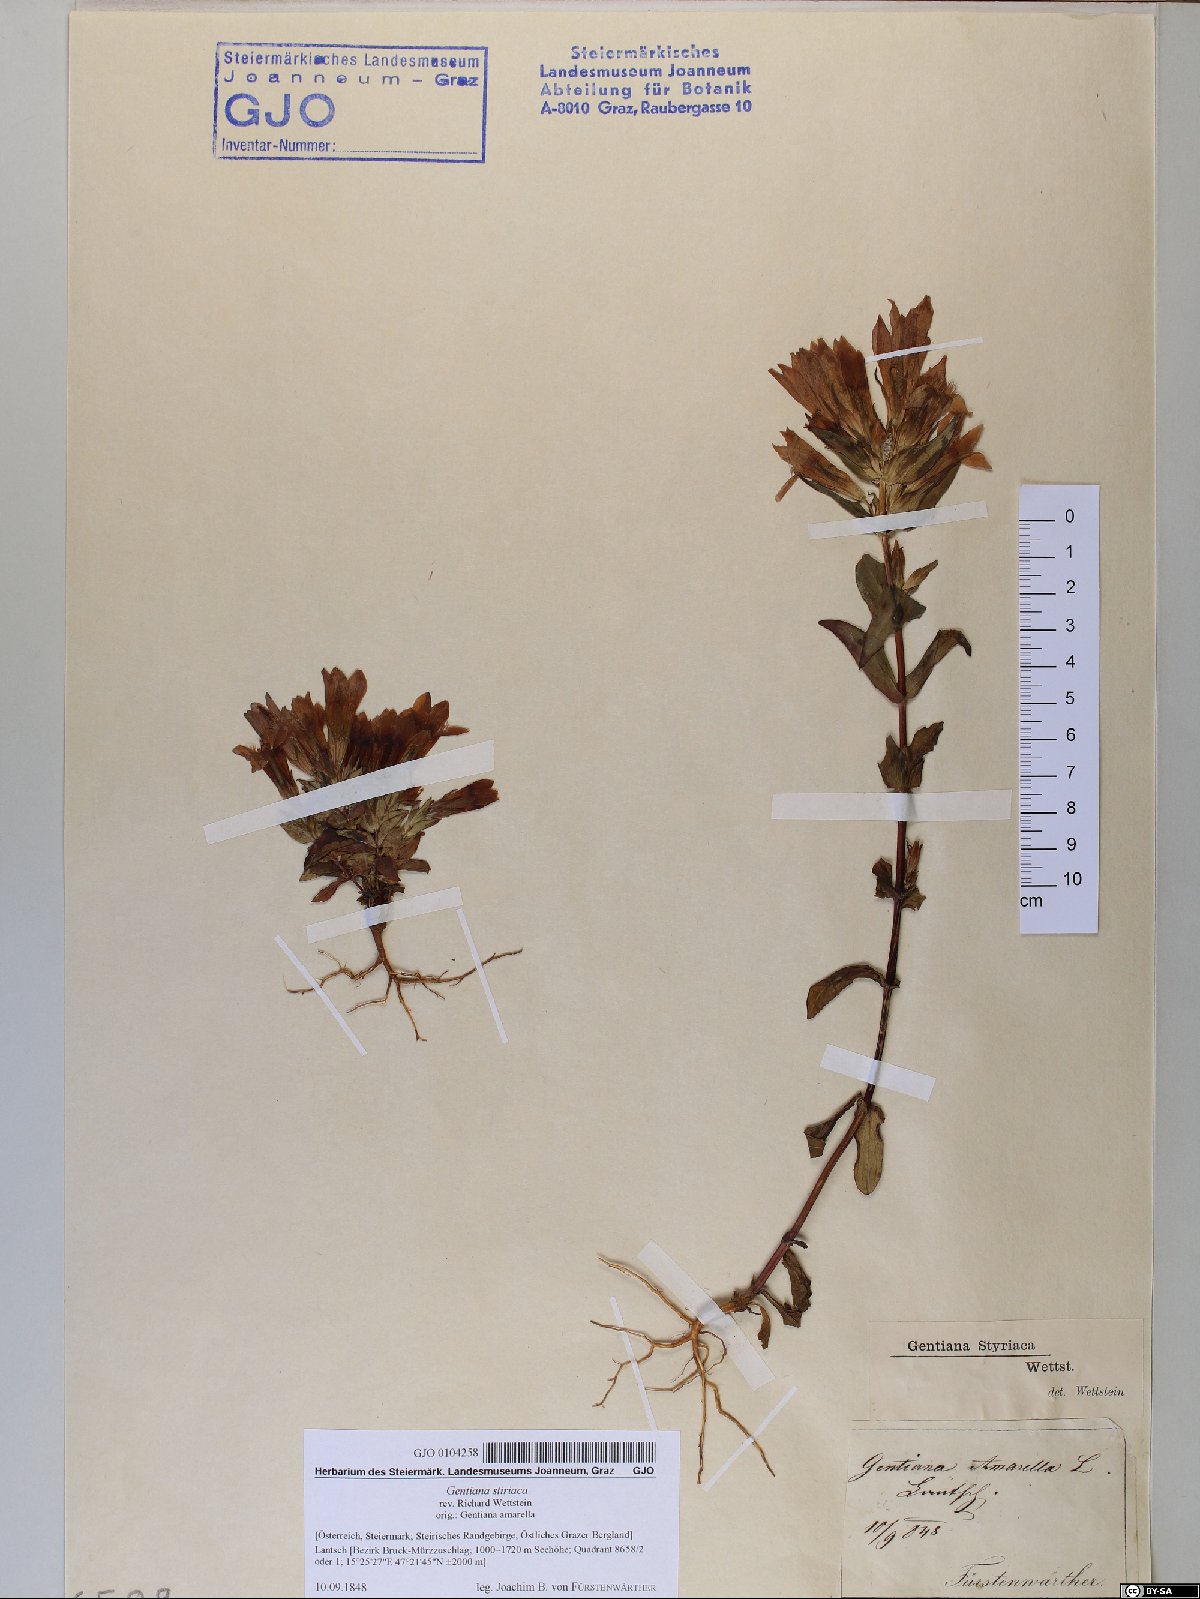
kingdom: Plantae
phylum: Tracheophyta
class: Magnoliopsida
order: Gentianales
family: Gentianaceae
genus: Gentianella
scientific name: Gentianella rhaetica
